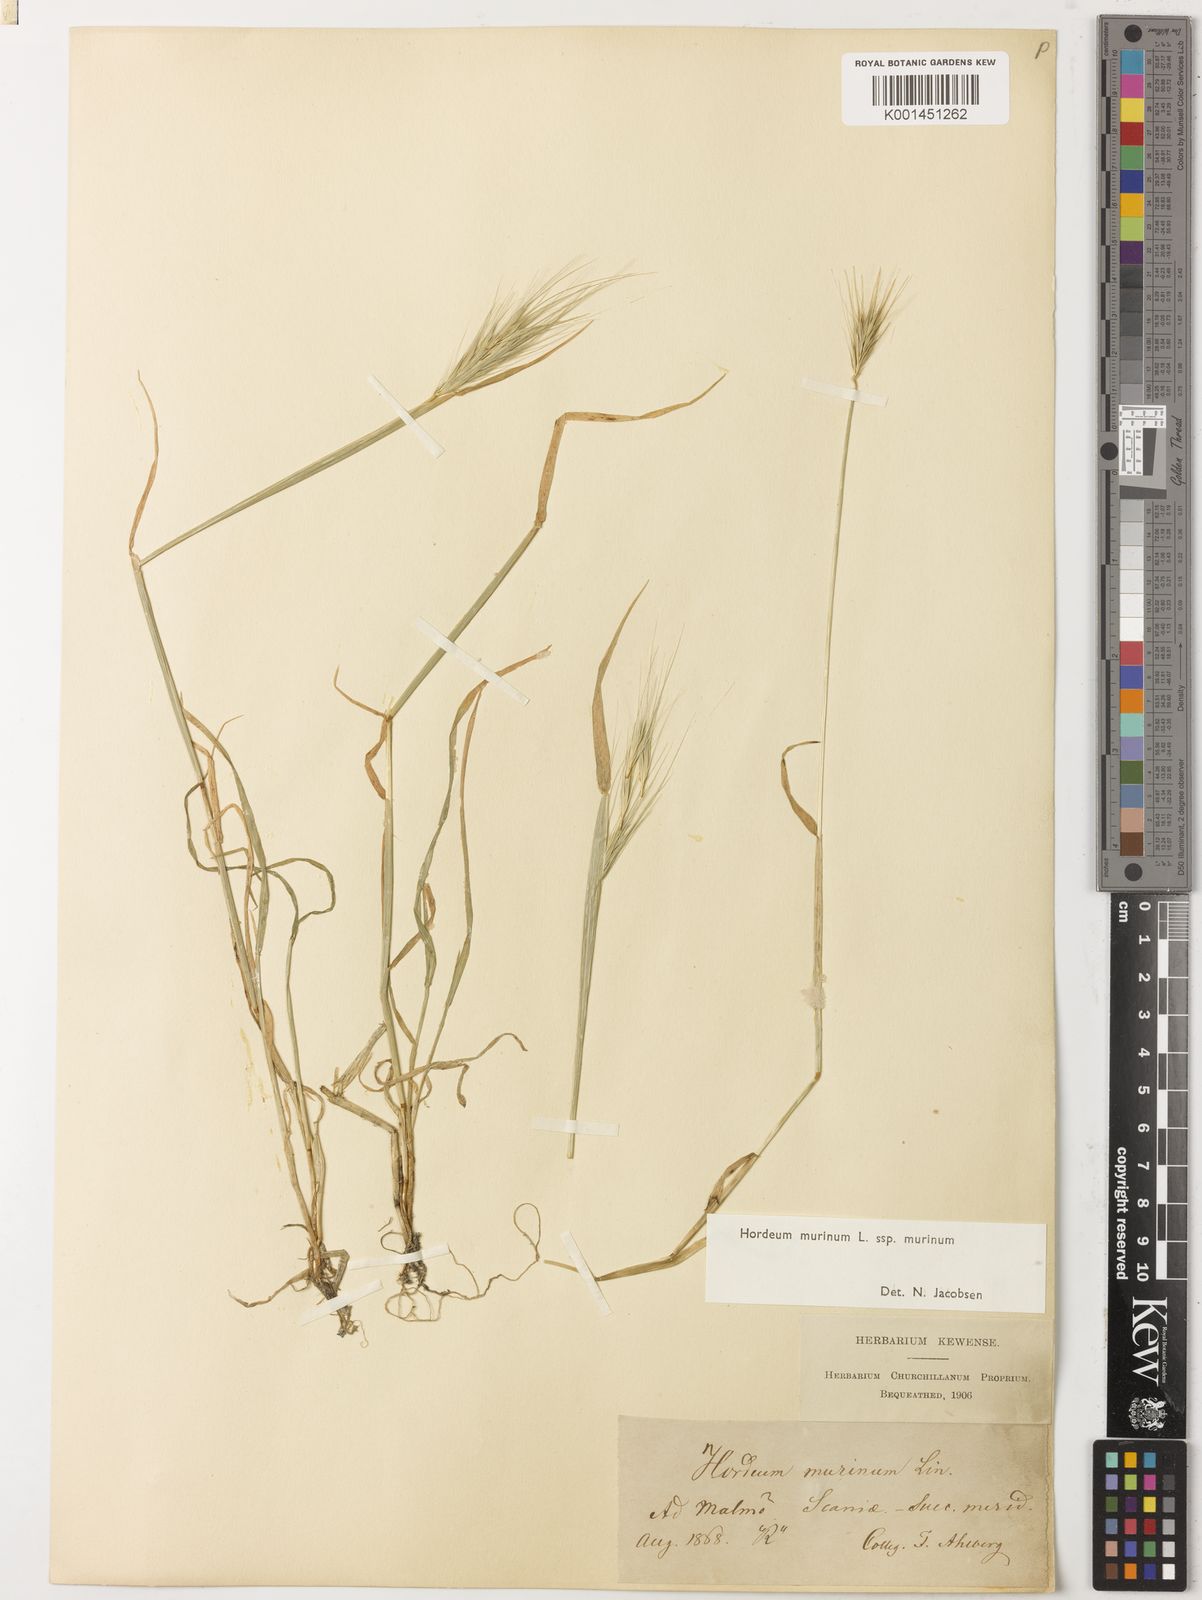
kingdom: Plantae
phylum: Tracheophyta
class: Liliopsida
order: Poales
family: Poaceae
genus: Hordeum
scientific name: Hordeum murinum
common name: Wall barley
